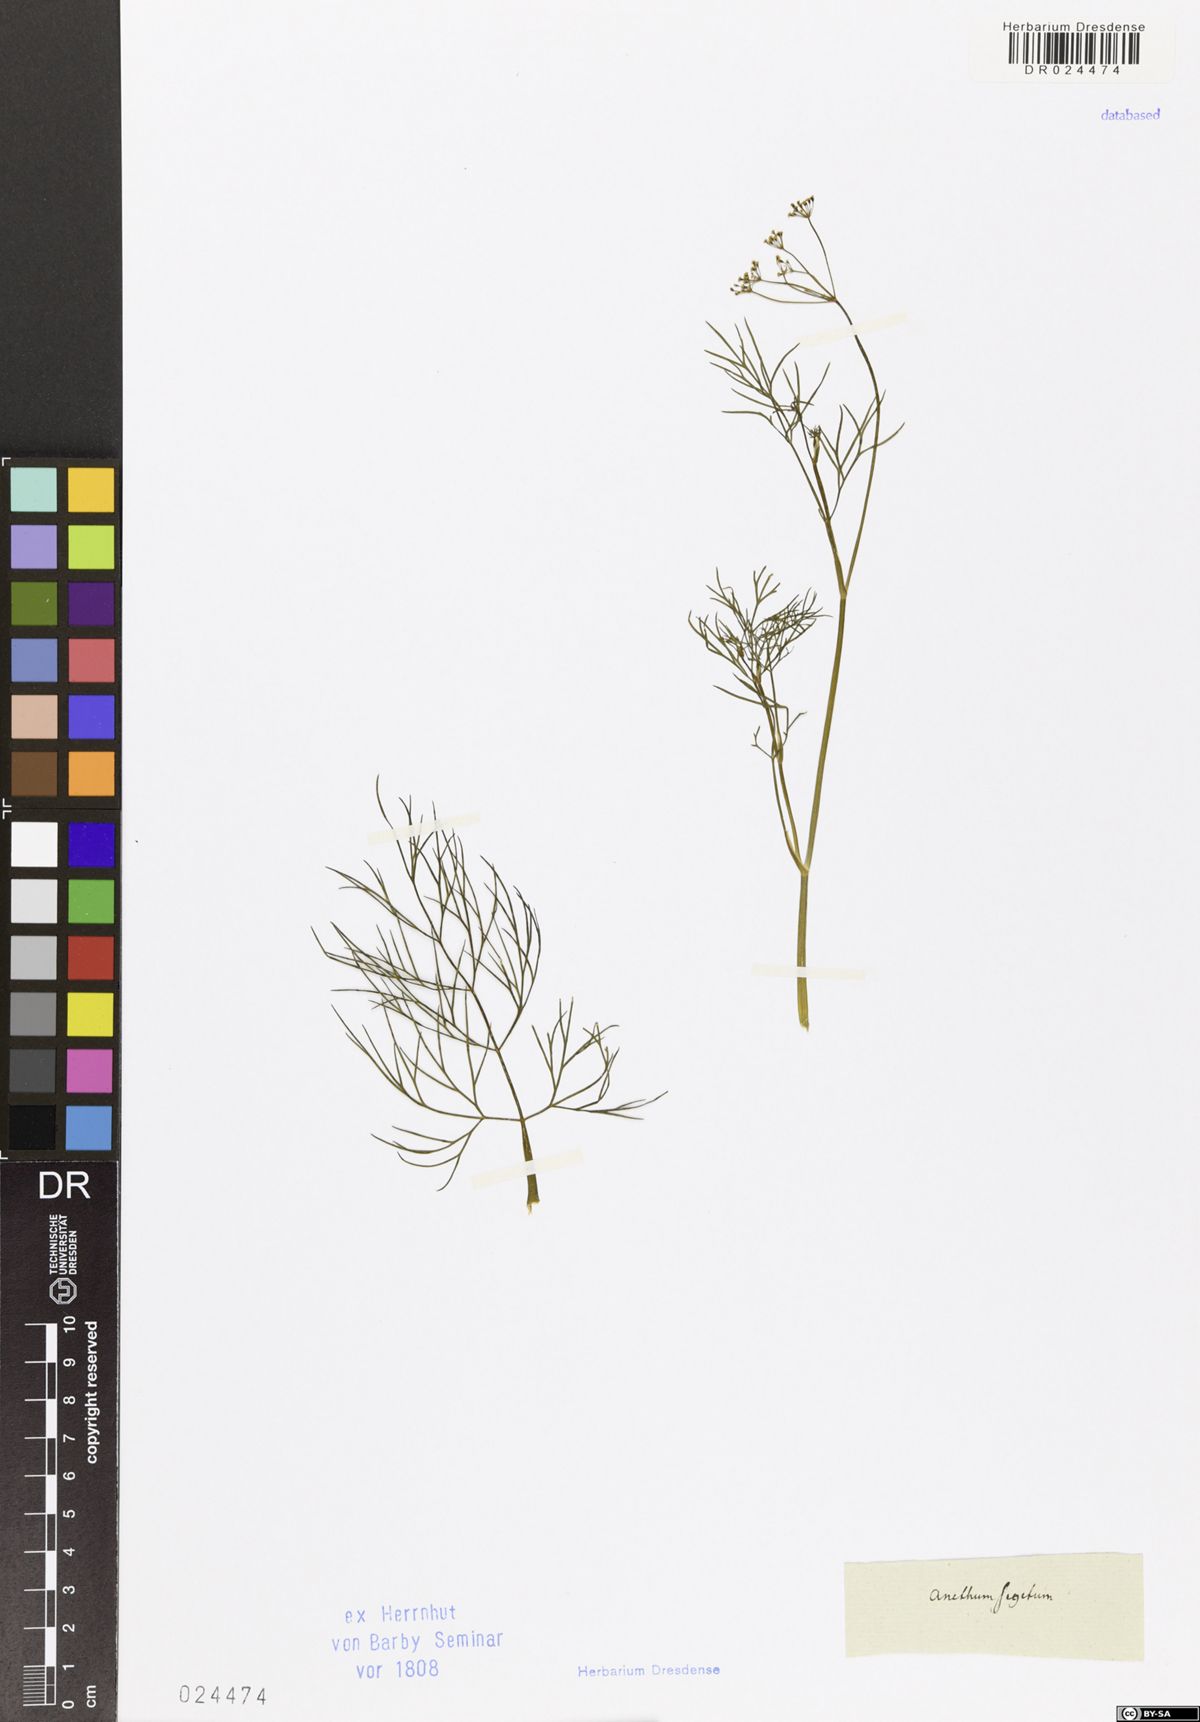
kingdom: Plantae
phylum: Tracheophyta
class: Magnoliopsida
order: Apiales
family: Apiaceae
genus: Anethum
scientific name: Anethum ridolfia
